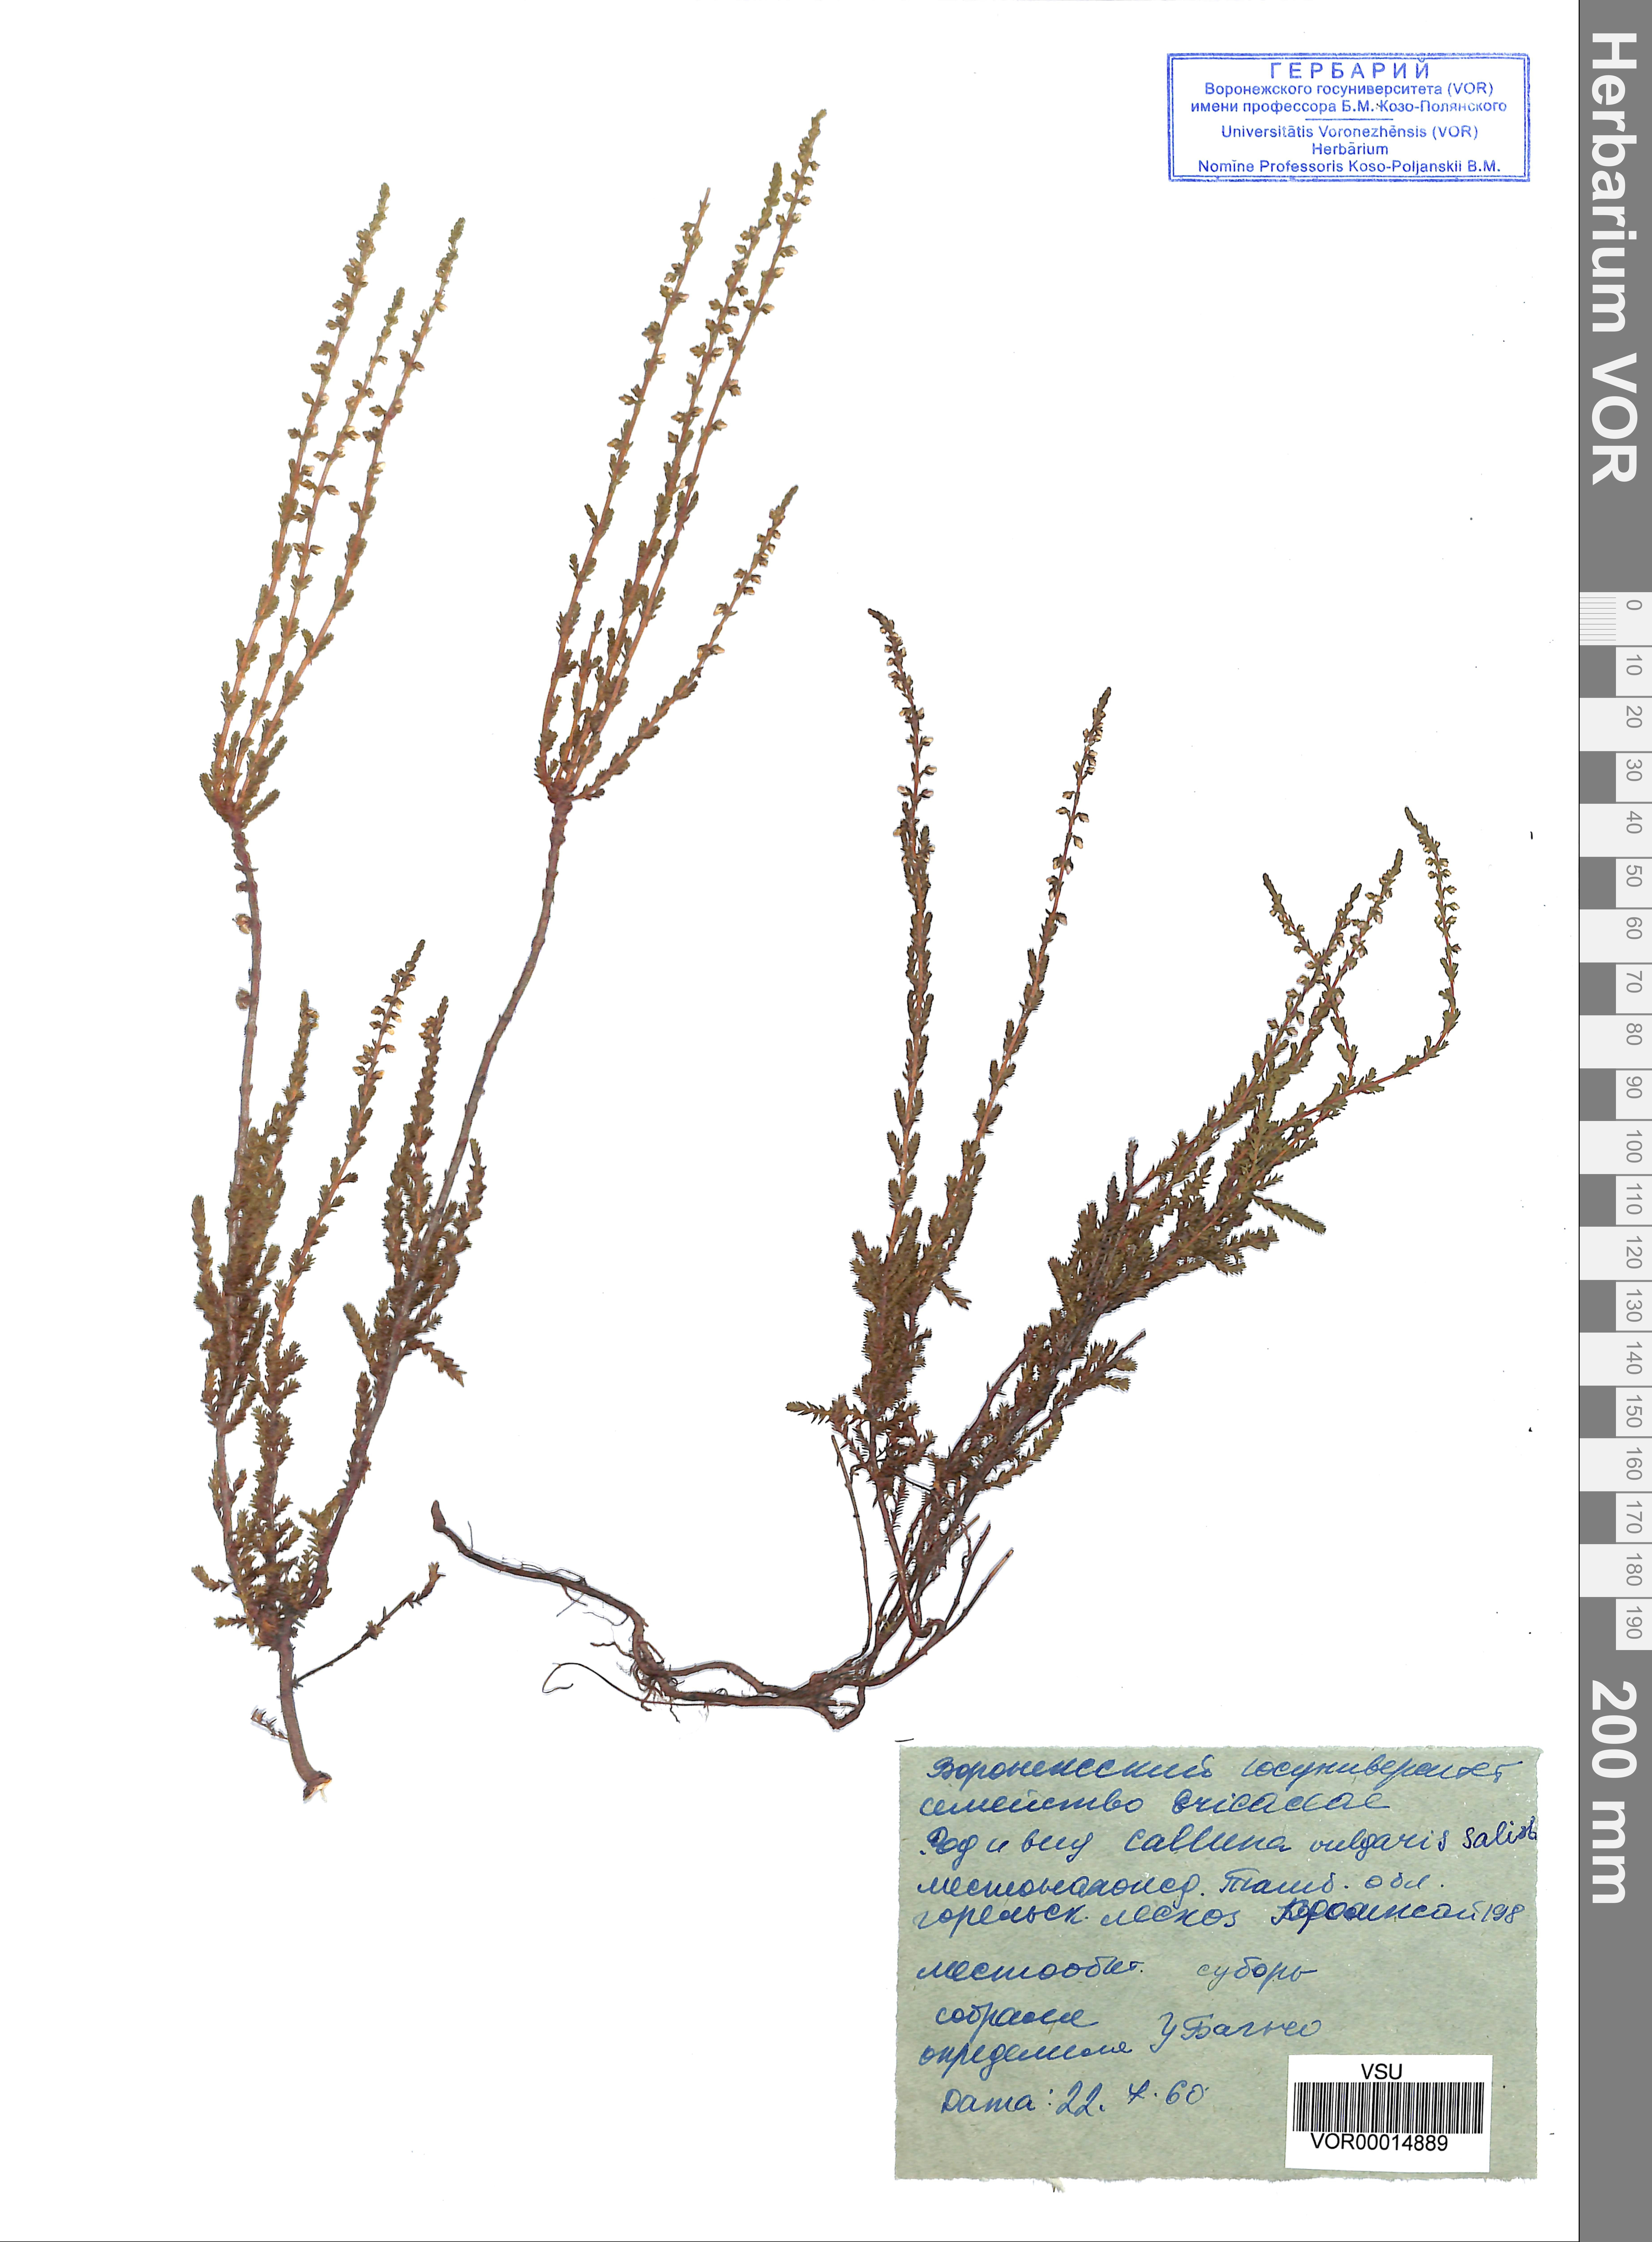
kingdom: Plantae
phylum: Tracheophyta
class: Magnoliopsida
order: Ericales
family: Ericaceae
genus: Calluna
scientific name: Calluna vulgaris
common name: Heather
